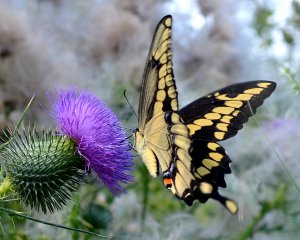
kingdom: Animalia
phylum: Arthropoda
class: Insecta
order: Lepidoptera
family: Papilionidae
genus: Papilio
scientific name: Papilio cresphontes
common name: Eastern Giant Swallowtail
